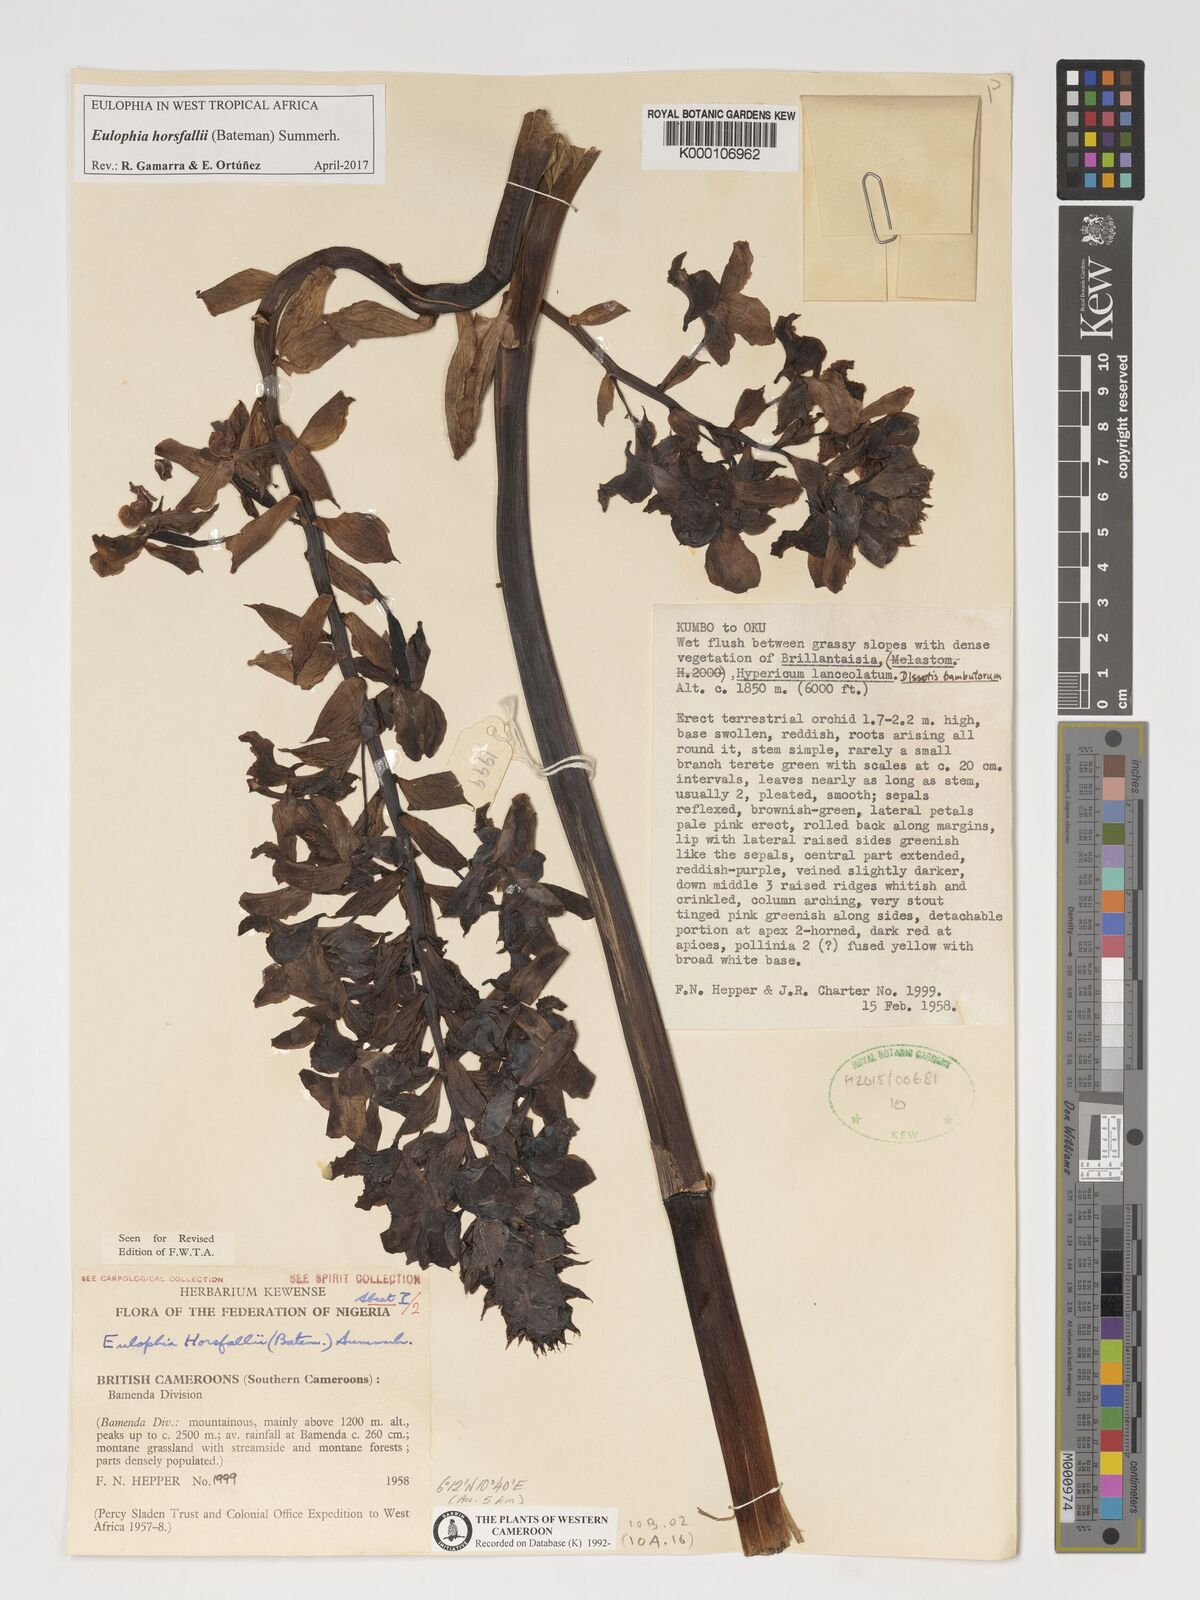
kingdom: Plantae
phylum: Tracheophyta
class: Liliopsida
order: Asparagales
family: Orchidaceae
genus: Eulophia
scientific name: Eulophia horsfallii
